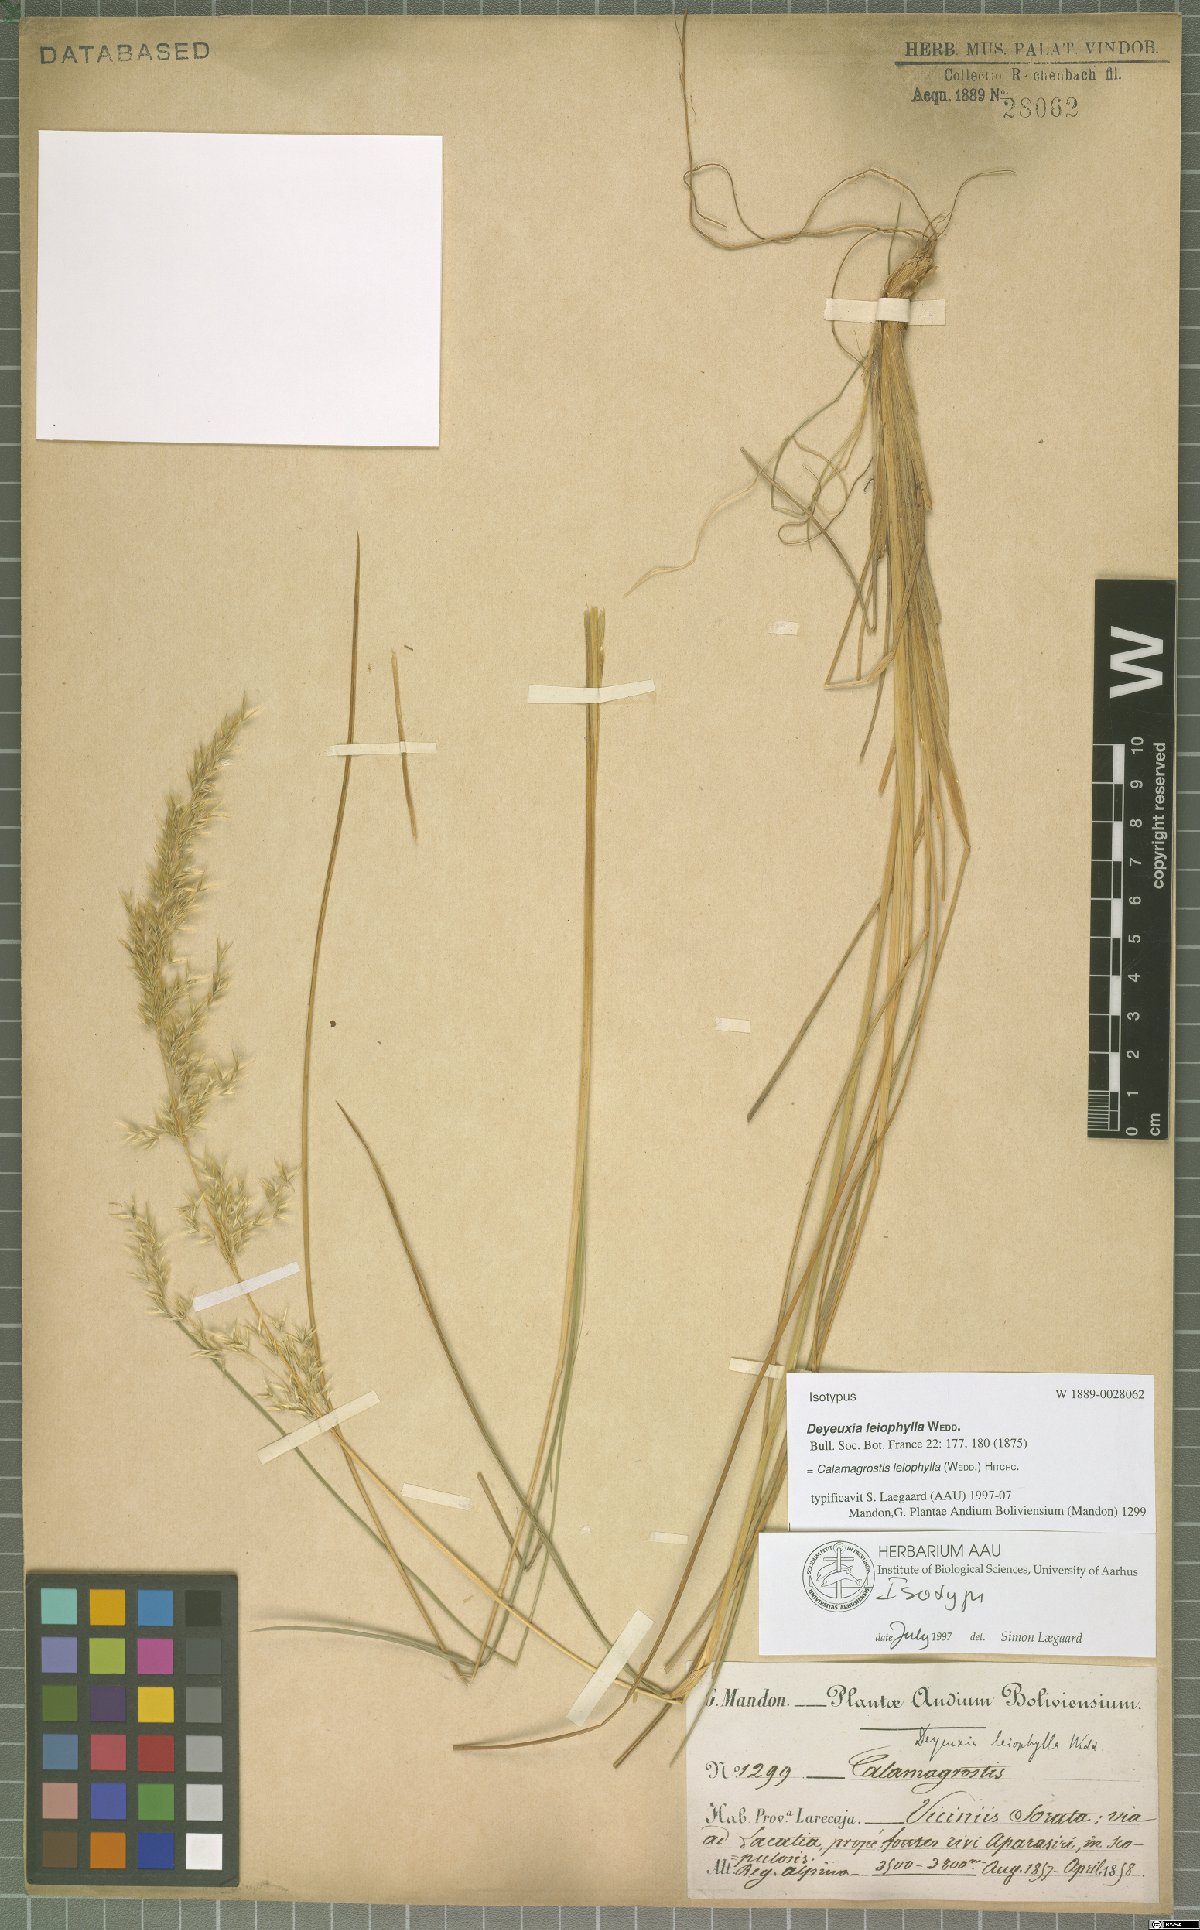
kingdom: Plantae
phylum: Tracheophyta
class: Liliopsida
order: Poales
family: Poaceae
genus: Cinnagrostis
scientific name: Cinnagrostis leiophylla
